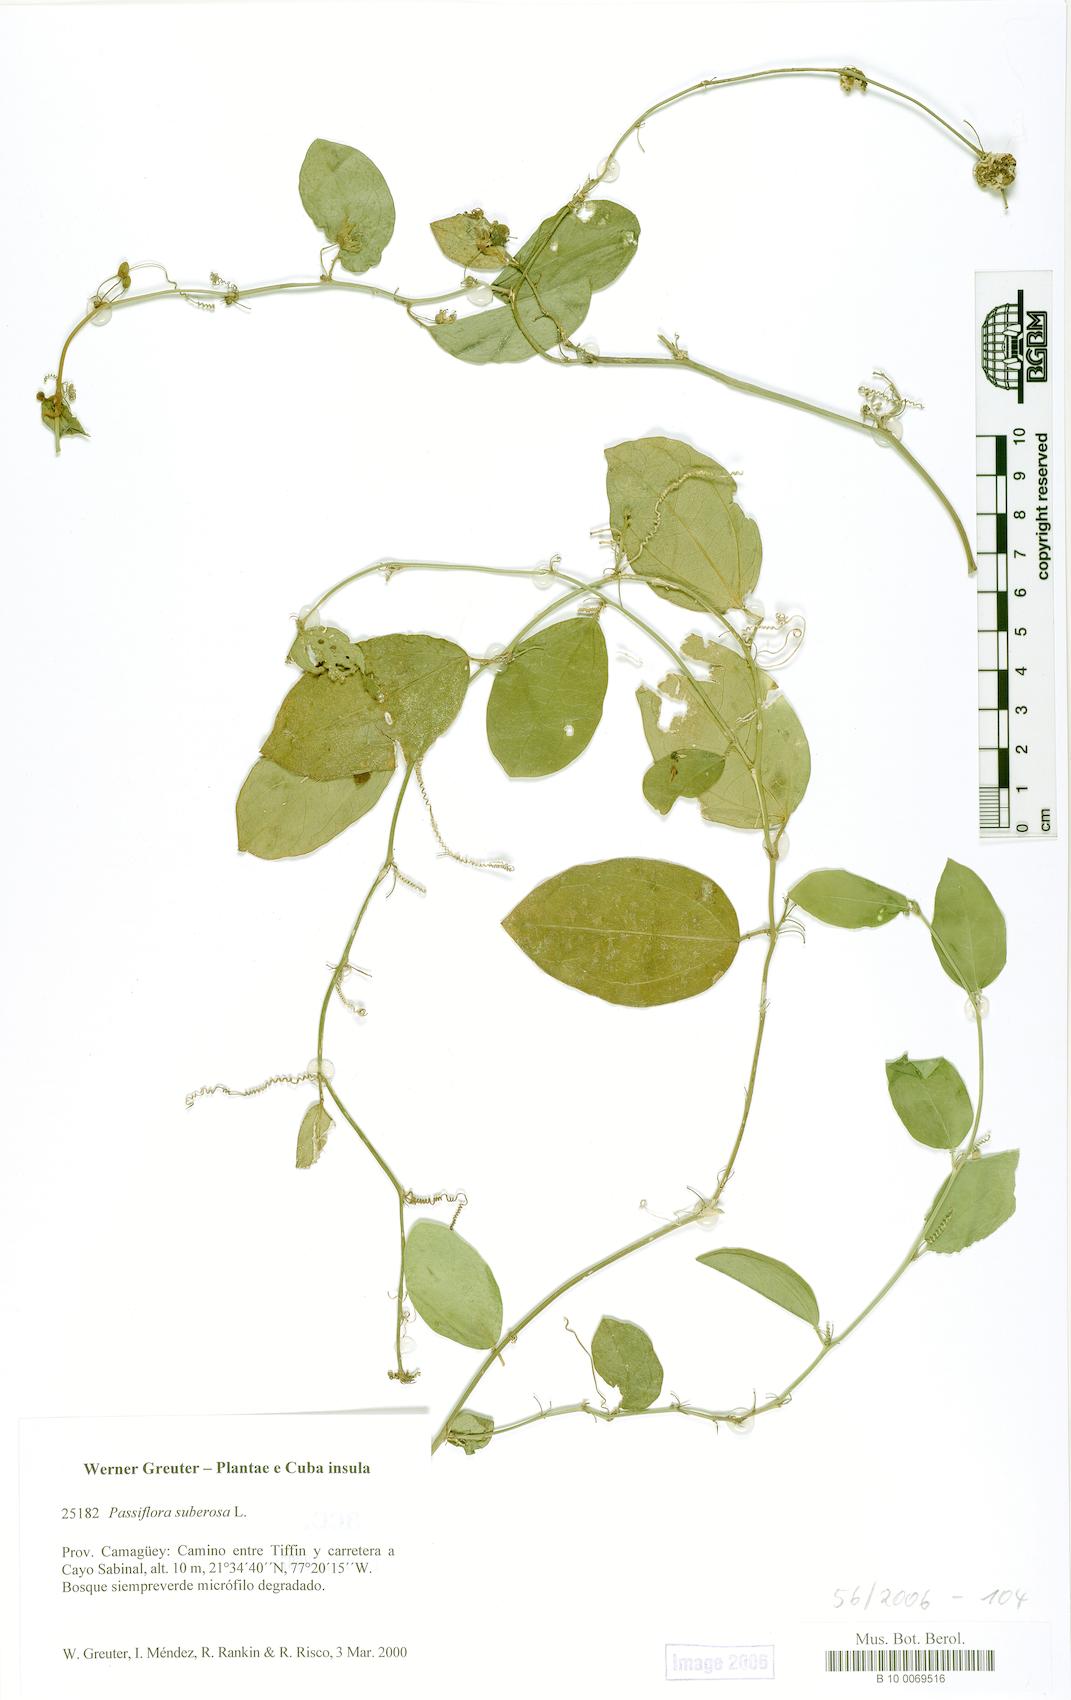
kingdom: Plantae
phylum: Tracheophyta
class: Magnoliopsida
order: Malpighiales
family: Passifloraceae
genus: Passiflora
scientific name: Passiflora suberosa
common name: Wild passionfruit
